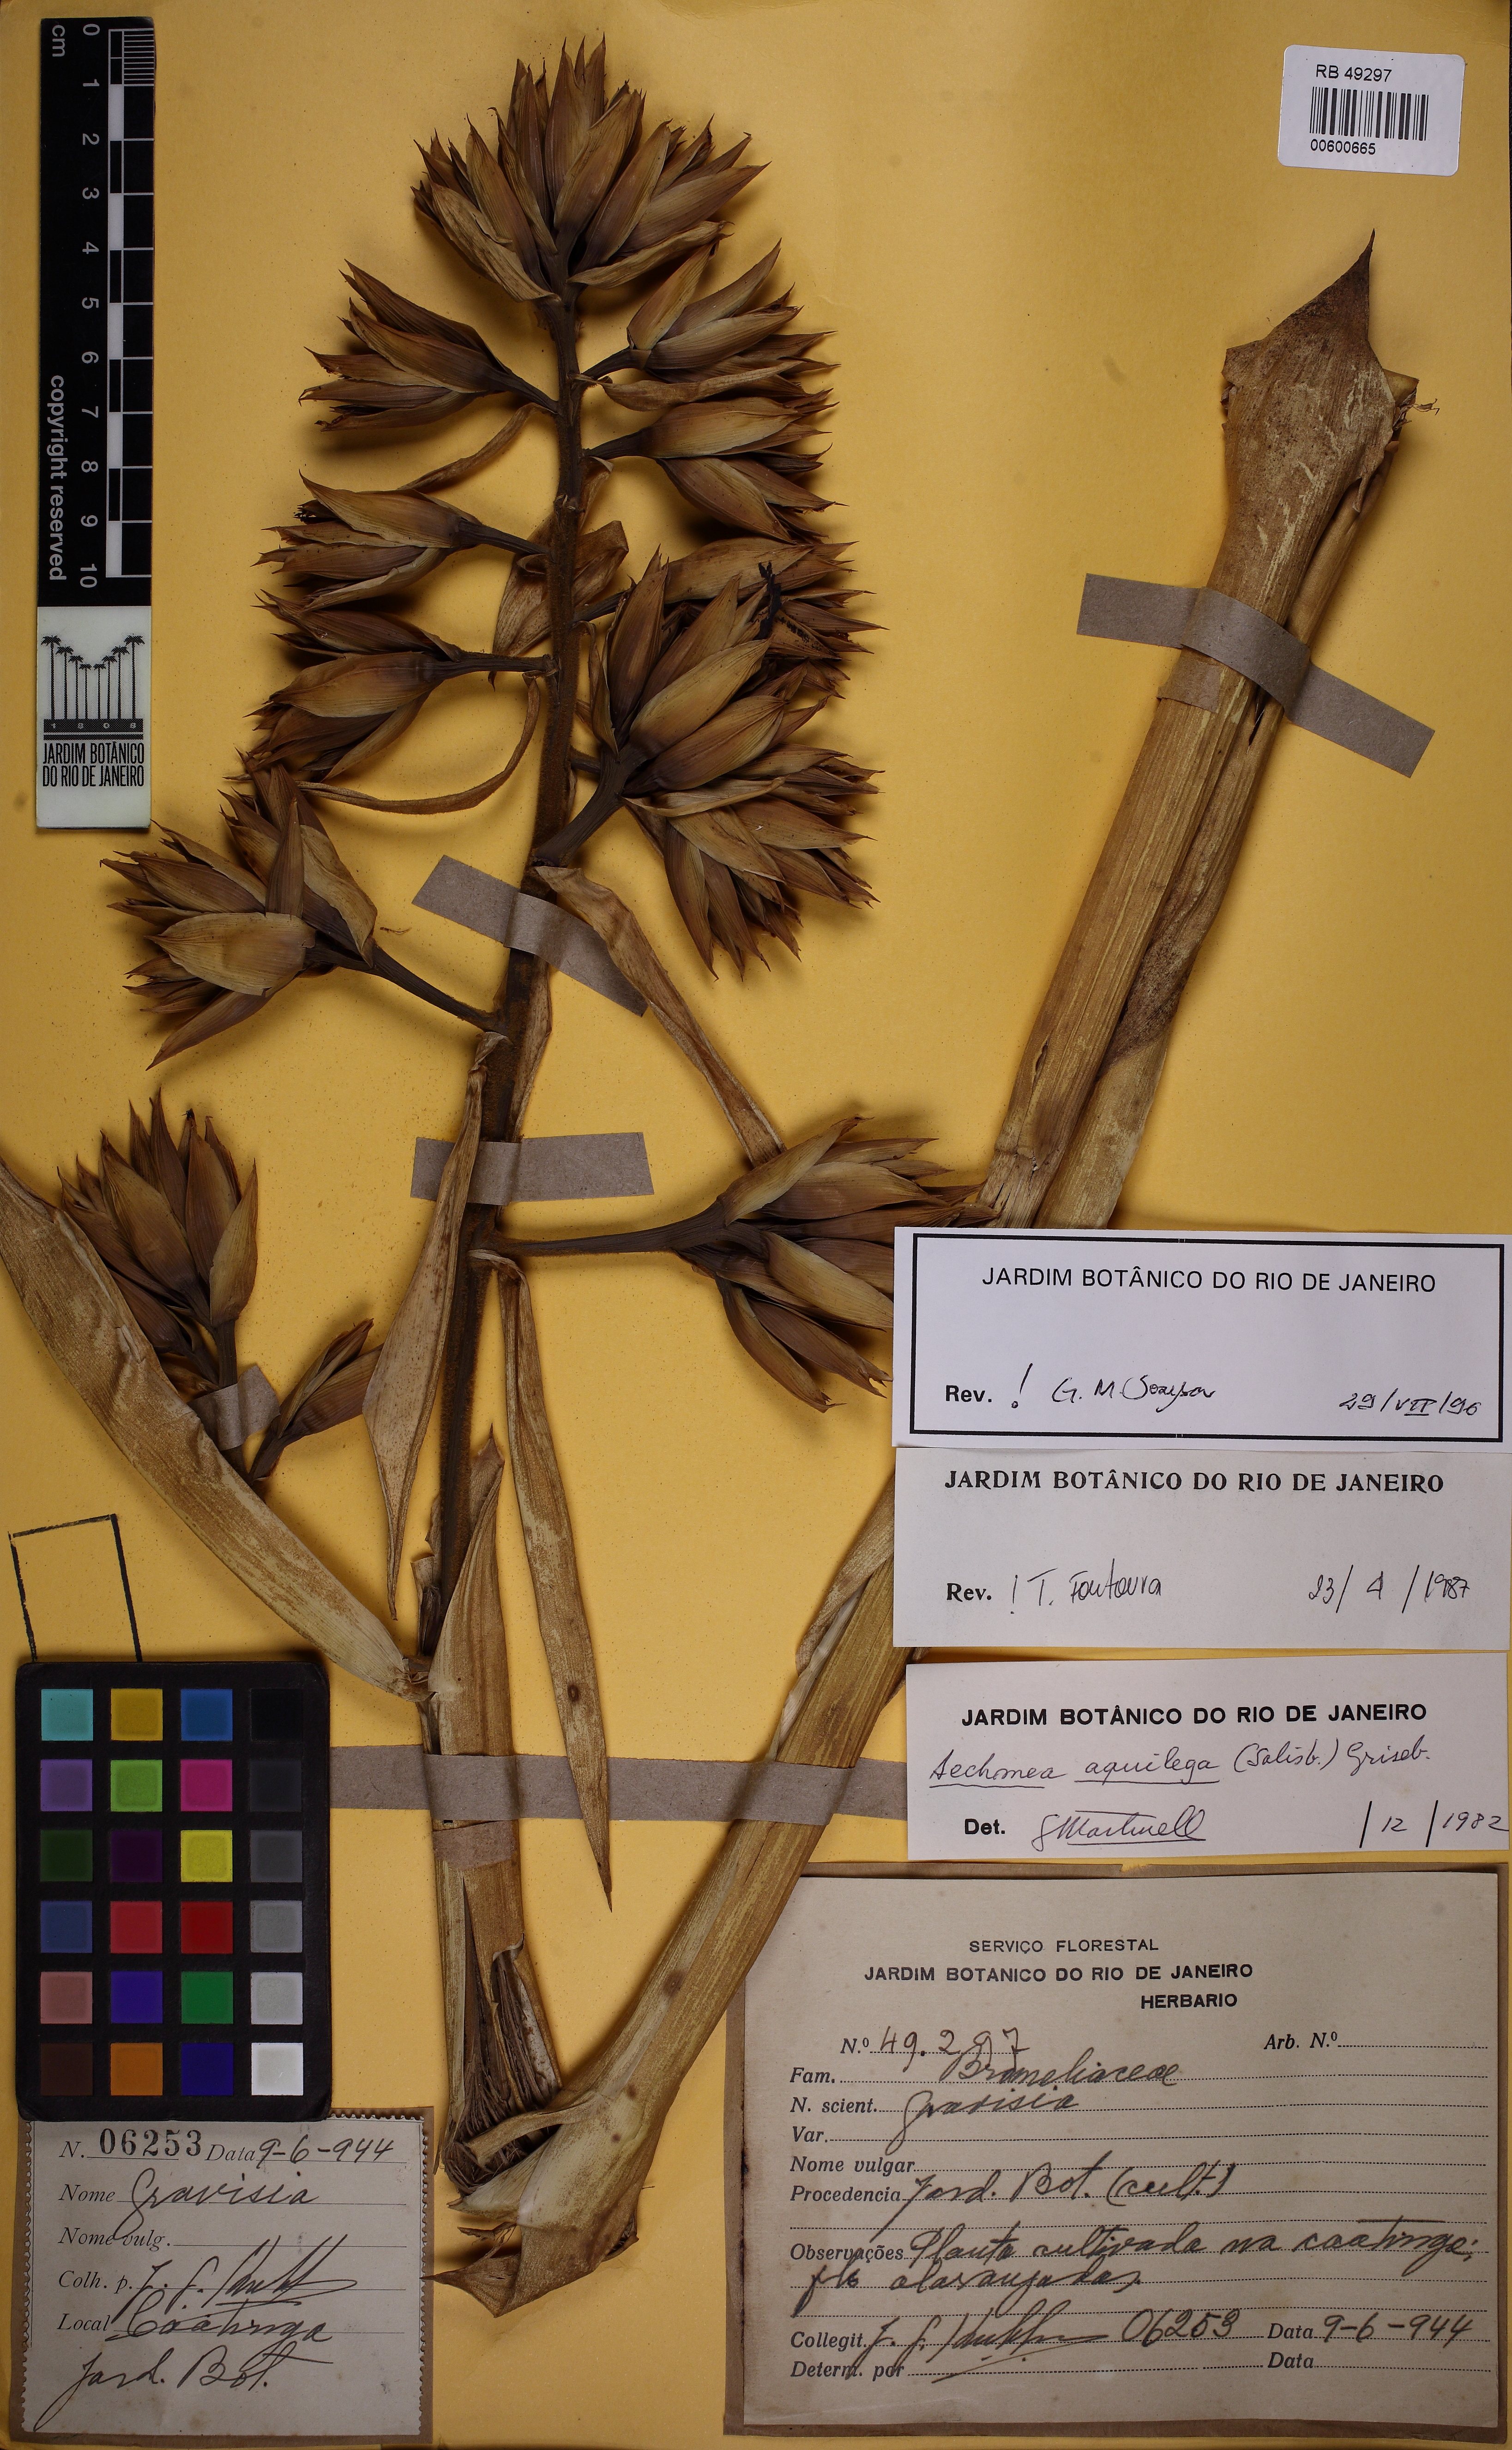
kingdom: Plantae
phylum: Tracheophyta
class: Liliopsida
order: Poales
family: Bromeliaceae
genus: Aechmea
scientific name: Aechmea aquilega
